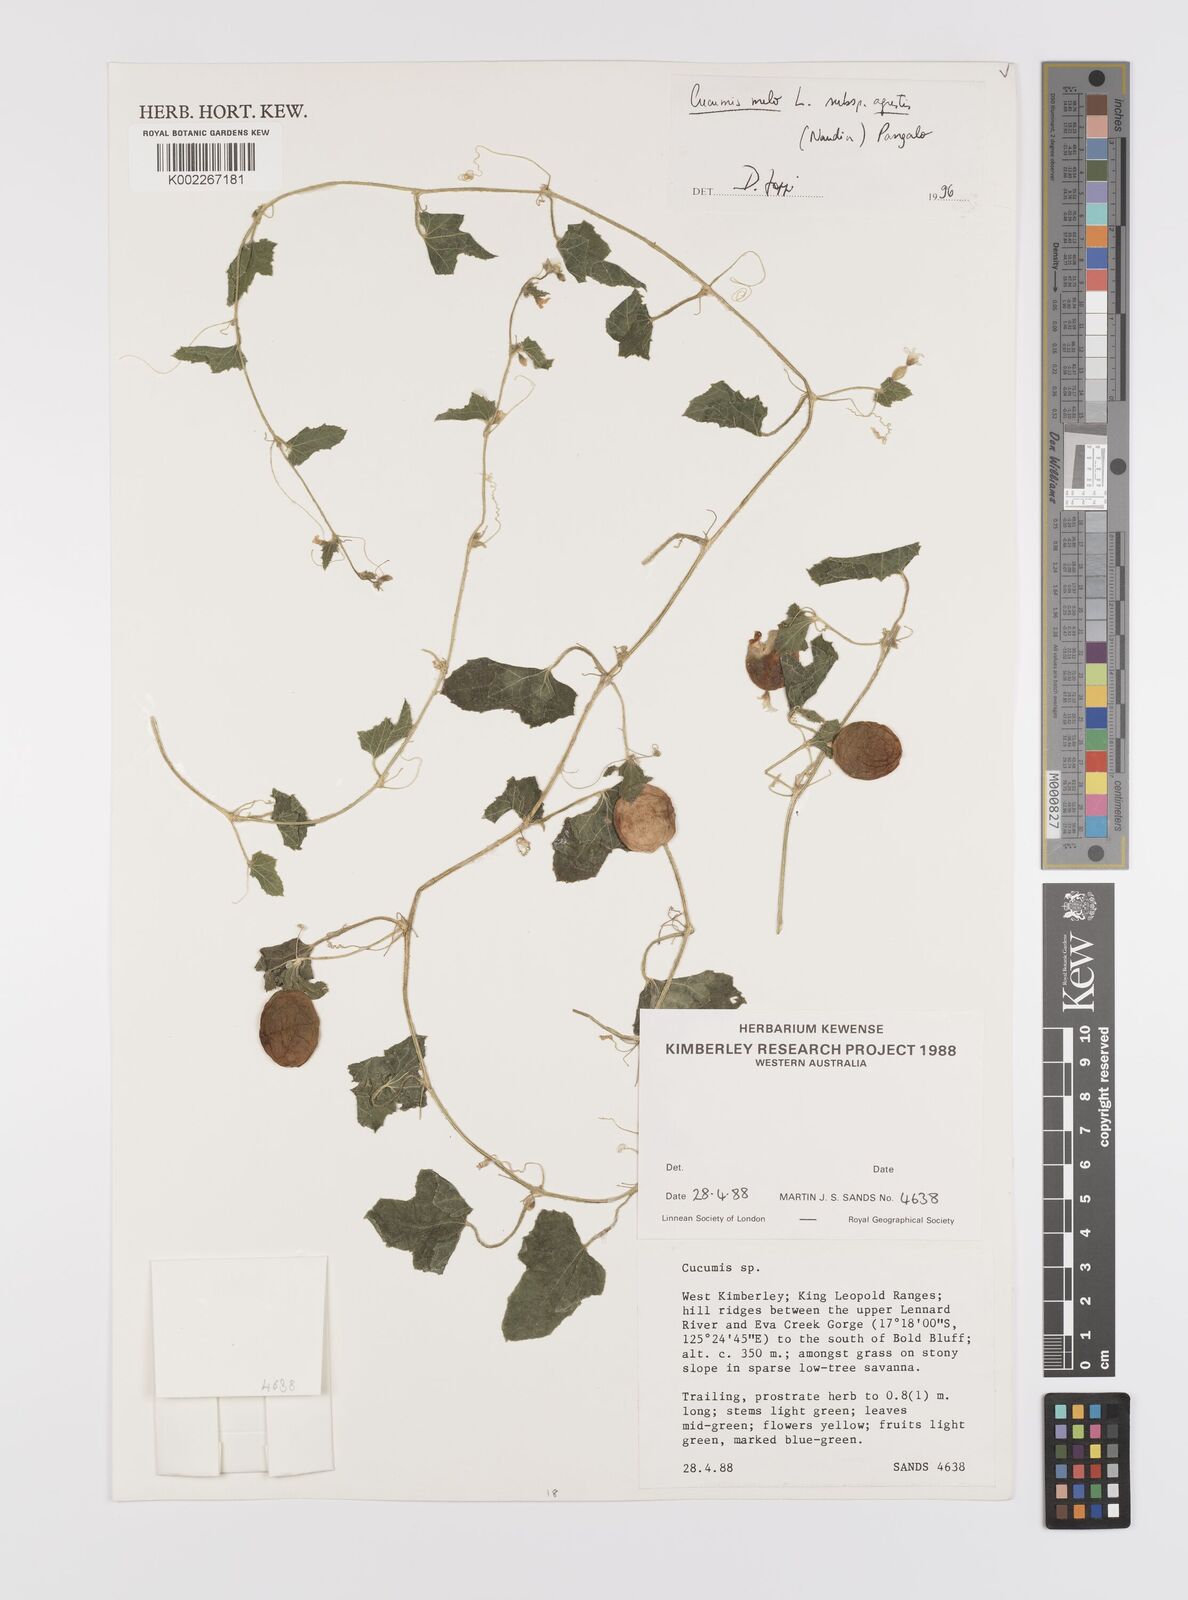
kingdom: Plantae
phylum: Tracheophyta
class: Magnoliopsida
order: Cucurbitales
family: Cucurbitaceae
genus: Cucumis
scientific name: Cucumis melo
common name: Melon
